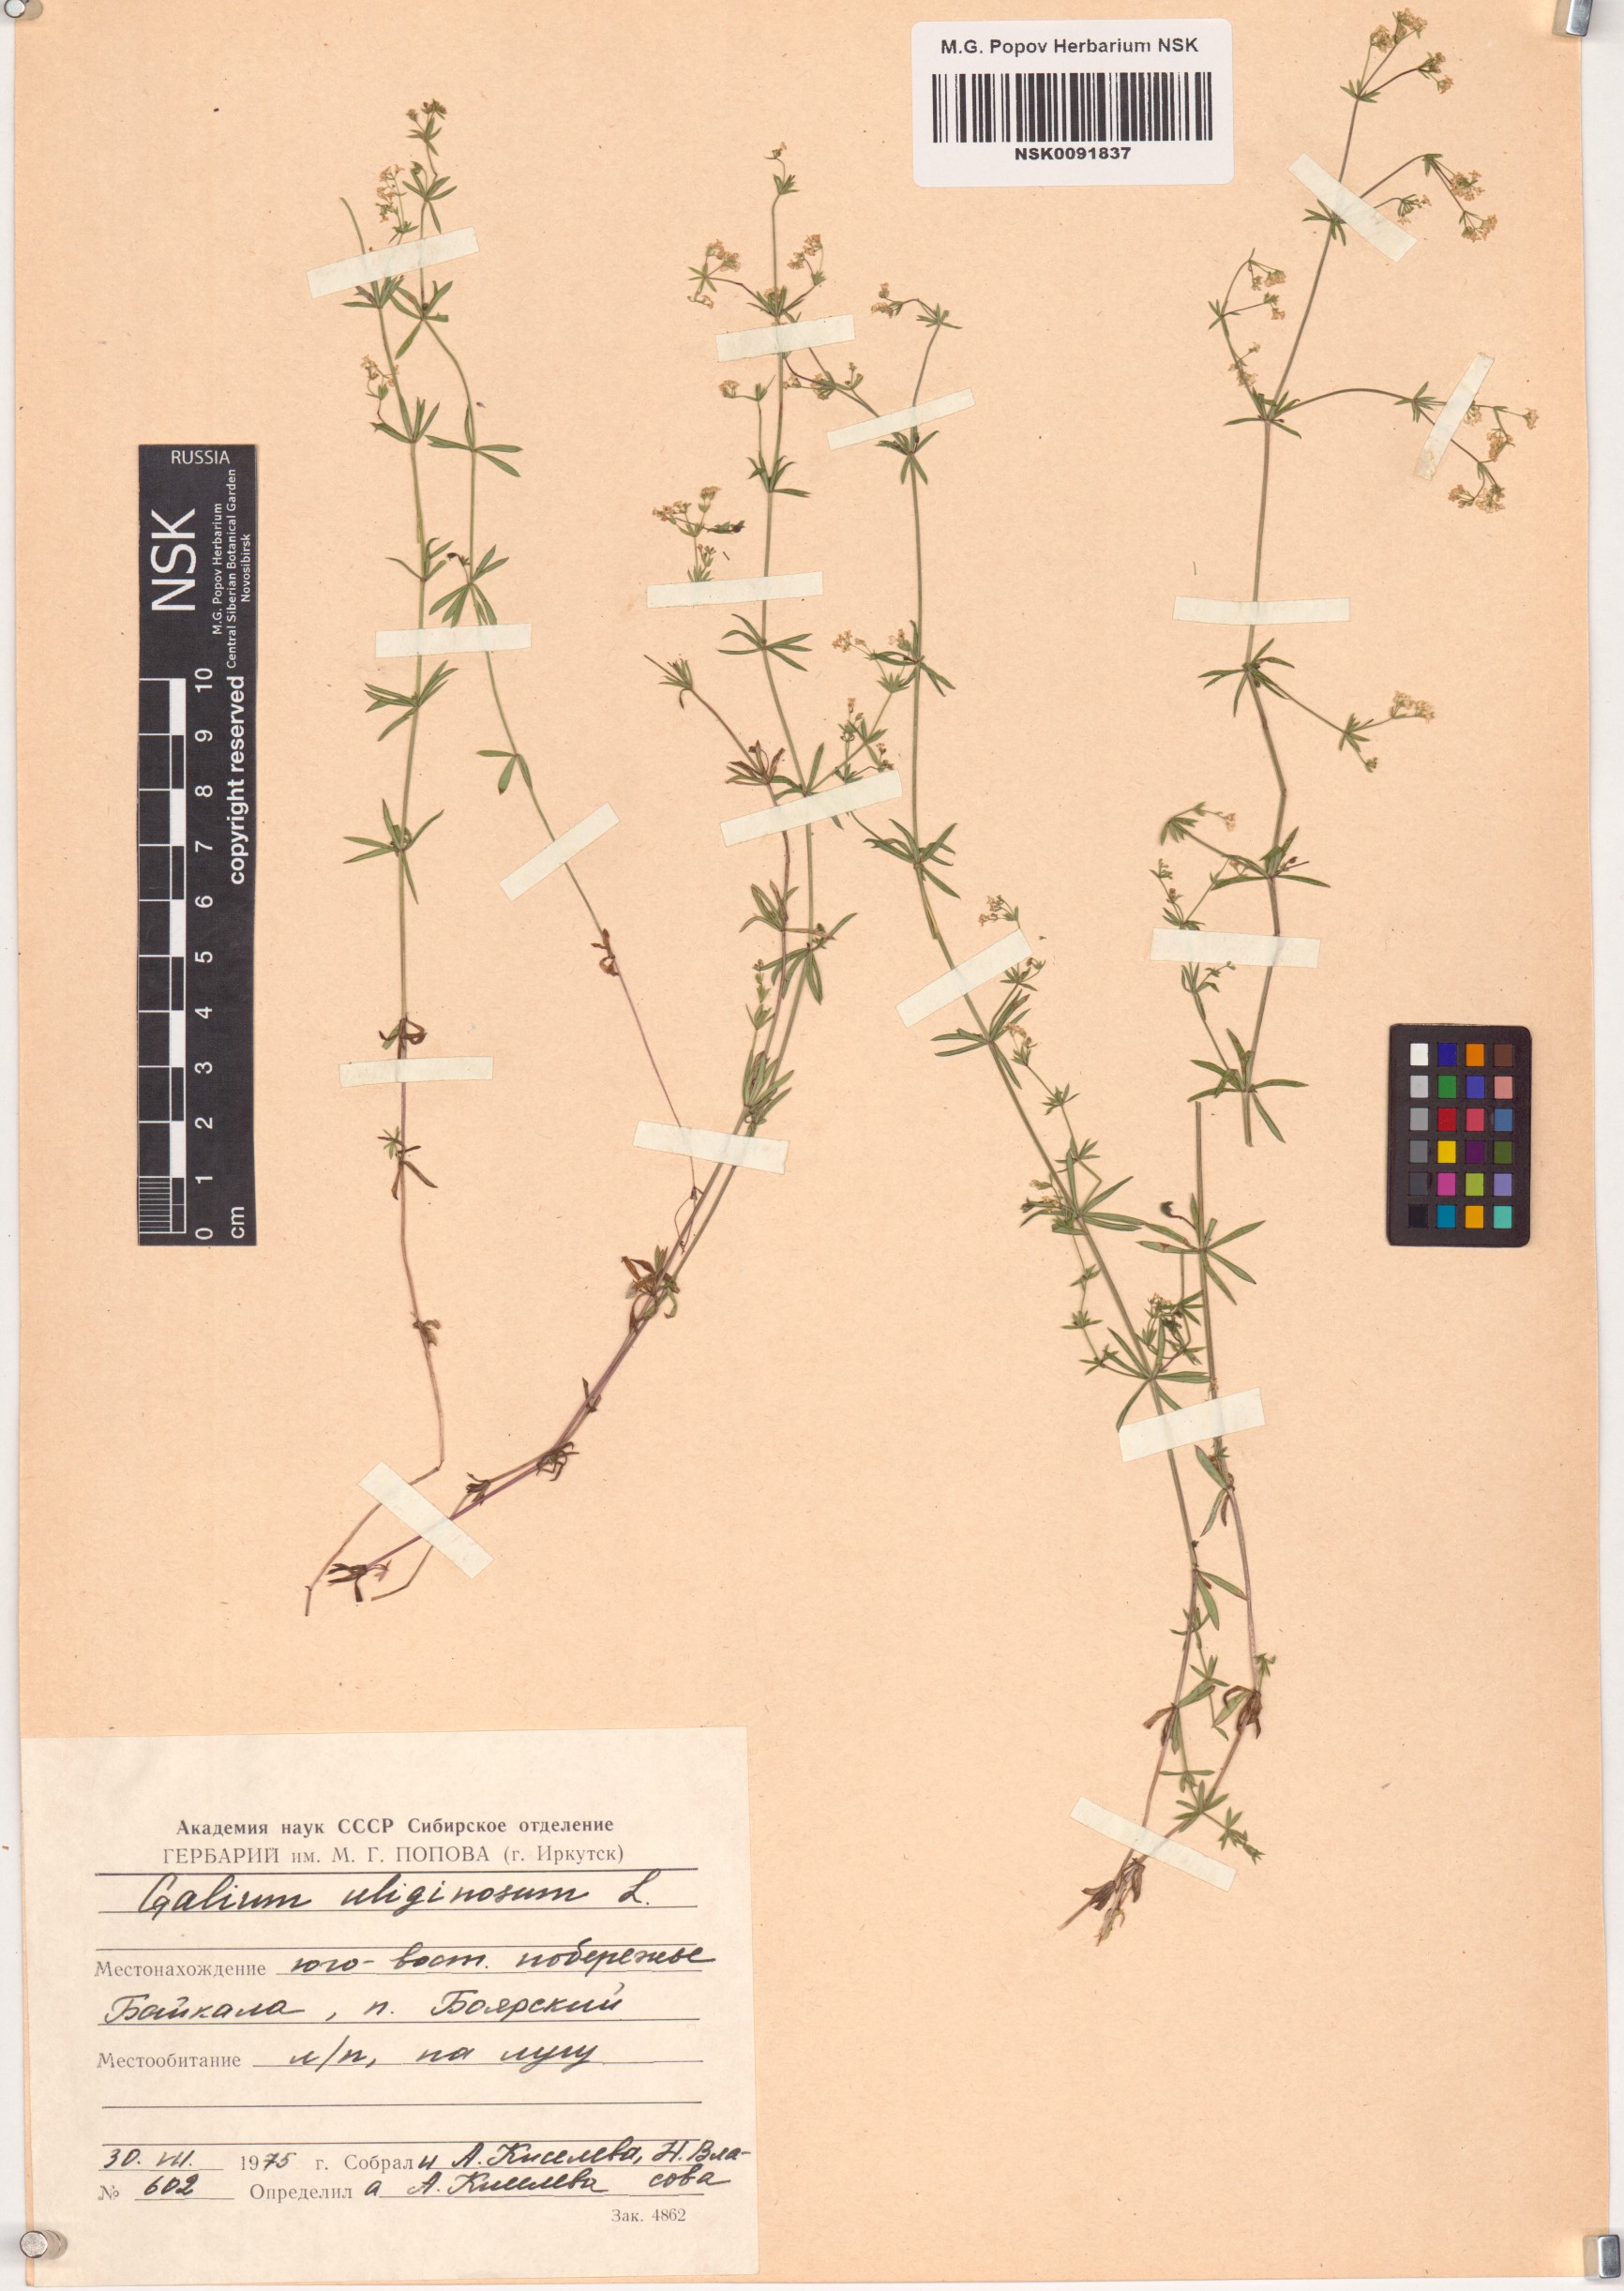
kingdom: Plantae
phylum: Tracheophyta
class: Magnoliopsida
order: Gentianales
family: Rubiaceae
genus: Galium
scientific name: Galium uliginosum
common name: Fen bedstraw
